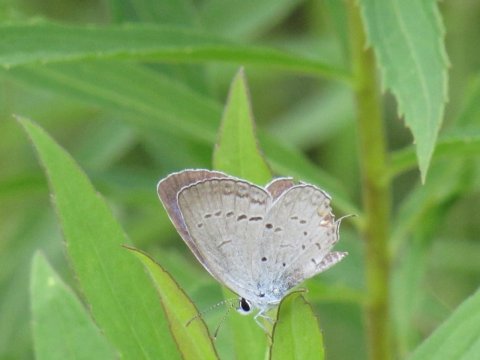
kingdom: Animalia
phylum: Arthropoda
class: Insecta
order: Lepidoptera
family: Lycaenidae
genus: Elkalyce
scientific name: Elkalyce comyntas
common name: Eastern Tailed-Blue
